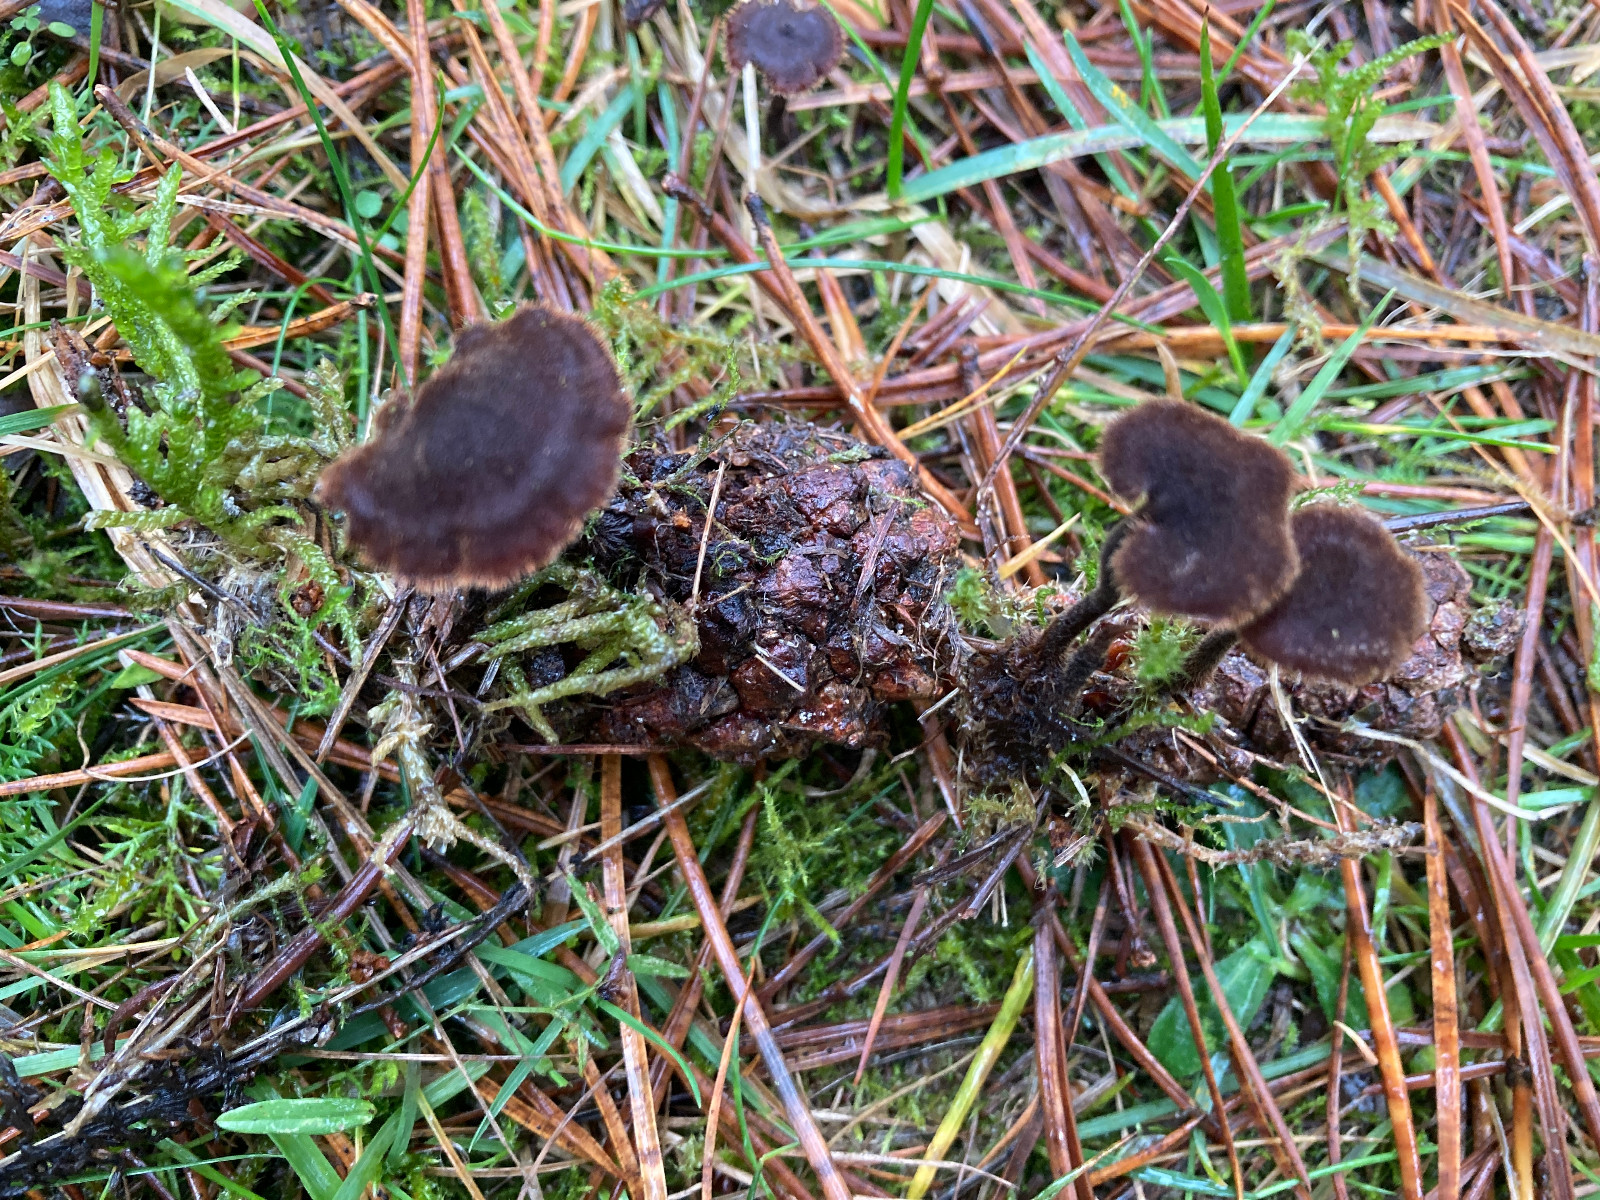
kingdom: Fungi
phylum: Basidiomycota
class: Agaricomycetes
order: Russulales
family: Auriscalpiaceae
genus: Auriscalpium
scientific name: Auriscalpium vulgare
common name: koglepigsvamp
